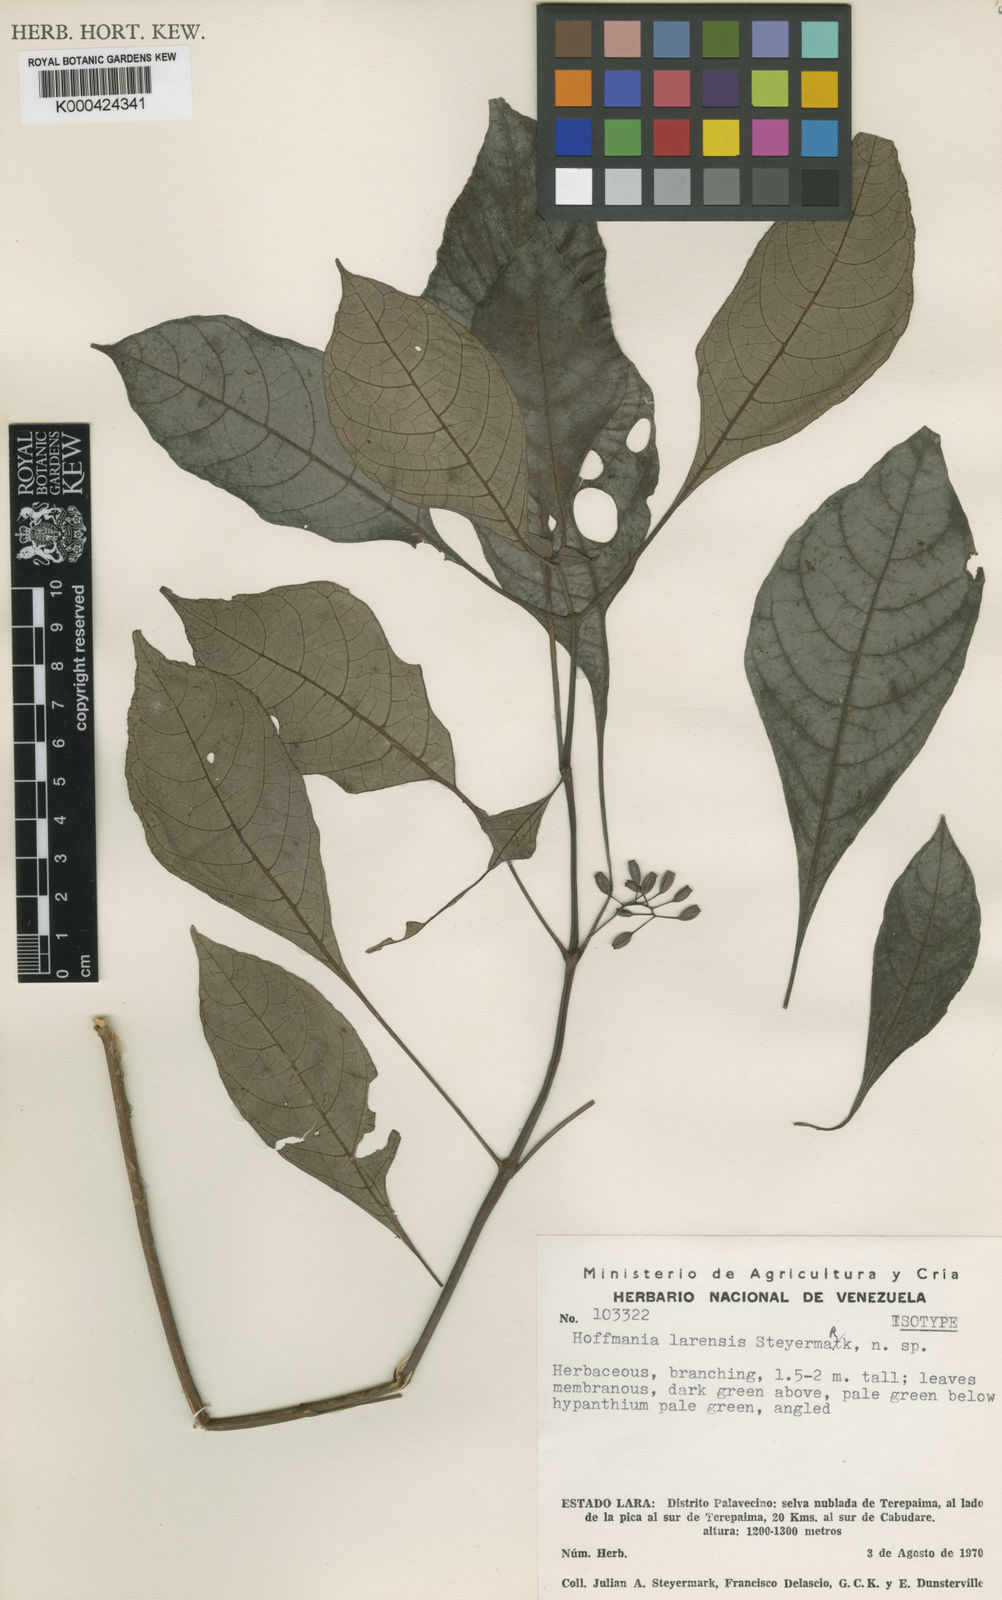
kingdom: Plantae
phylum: Tracheophyta
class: Magnoliopsida
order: Gentianales
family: Rubiaceae
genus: Hoffmannia
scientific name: Hoffmannia larensis
